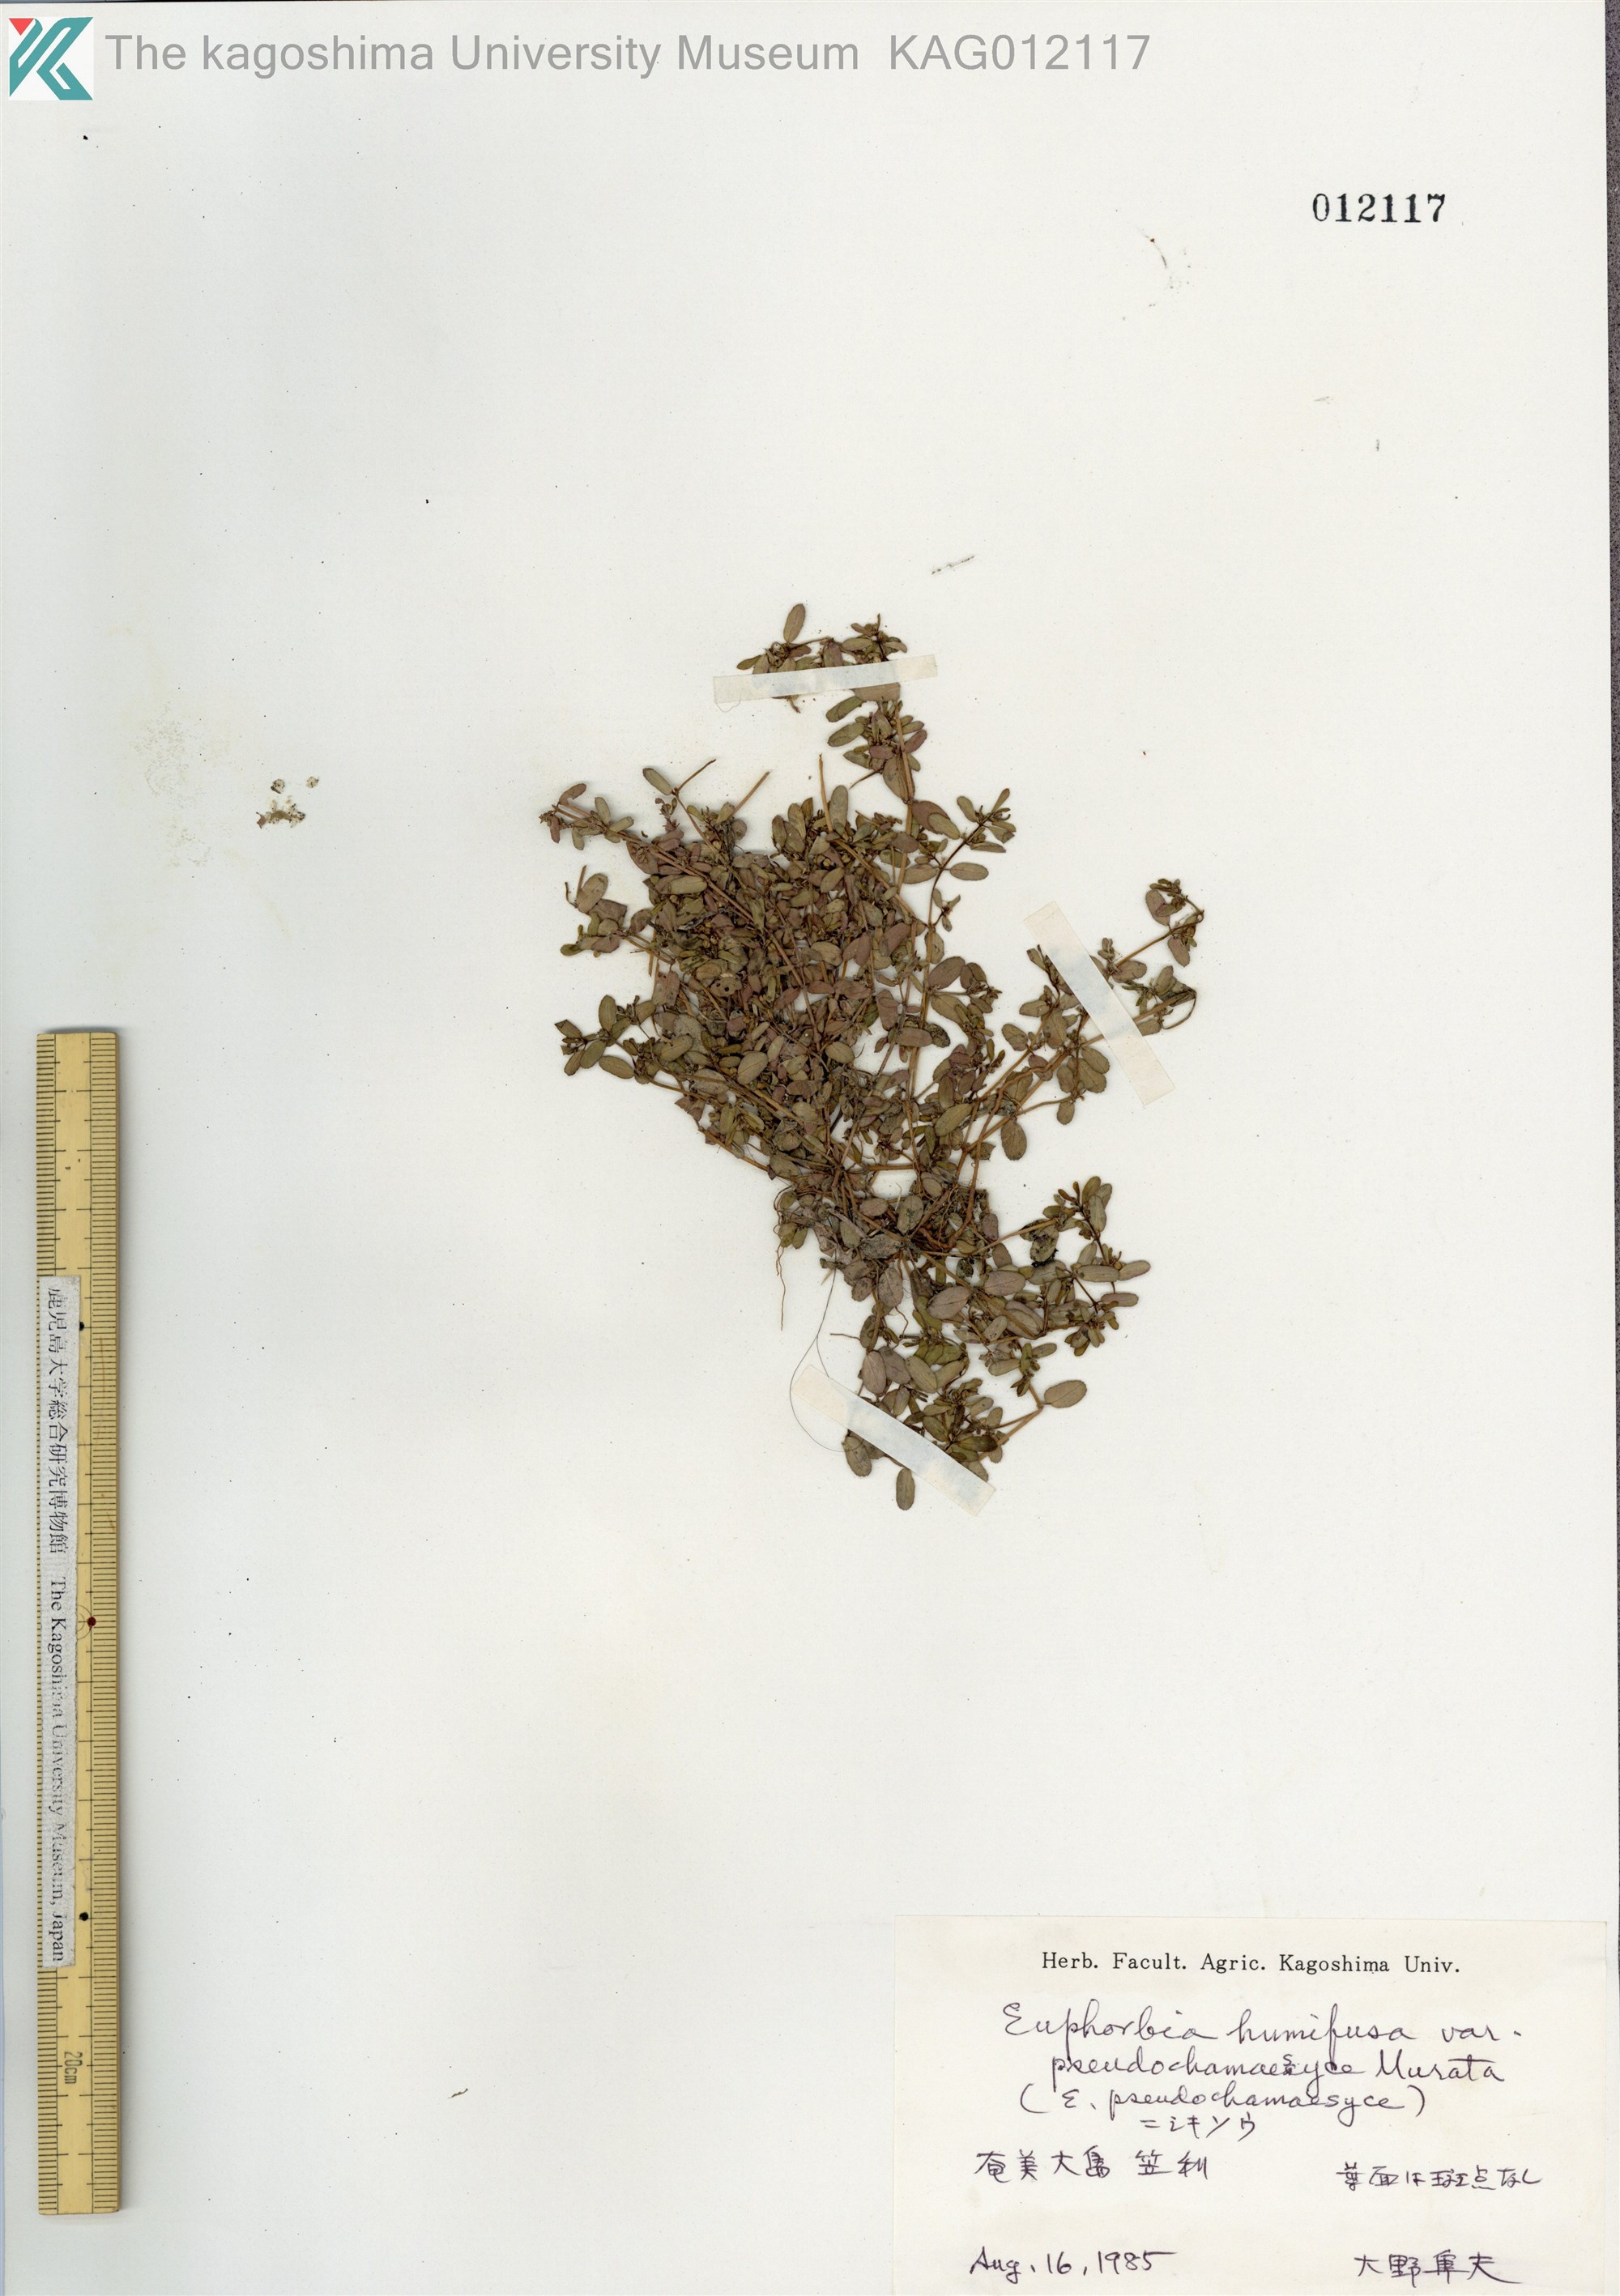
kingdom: Plantae
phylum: Tracheophyta
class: Magnoliopsida
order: Malpighiales
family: Euphorbiaceae
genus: Euphorbia
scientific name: Euphorbia humifusa
